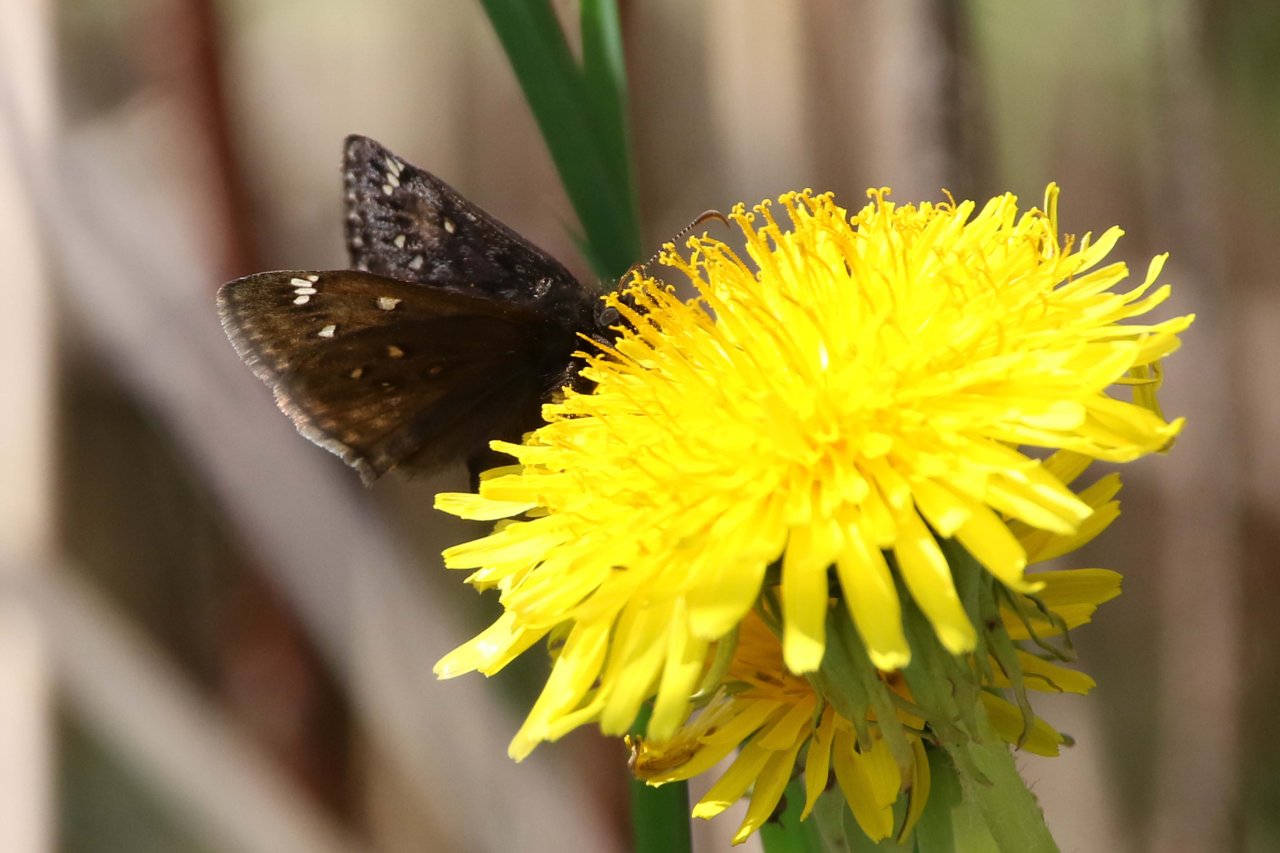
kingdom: Animalia
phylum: Arthropoda
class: Insecta
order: Lepidoptera
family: Hesperiidae
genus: Gesta
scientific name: Gesta
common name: Juvenal's Duskywing
